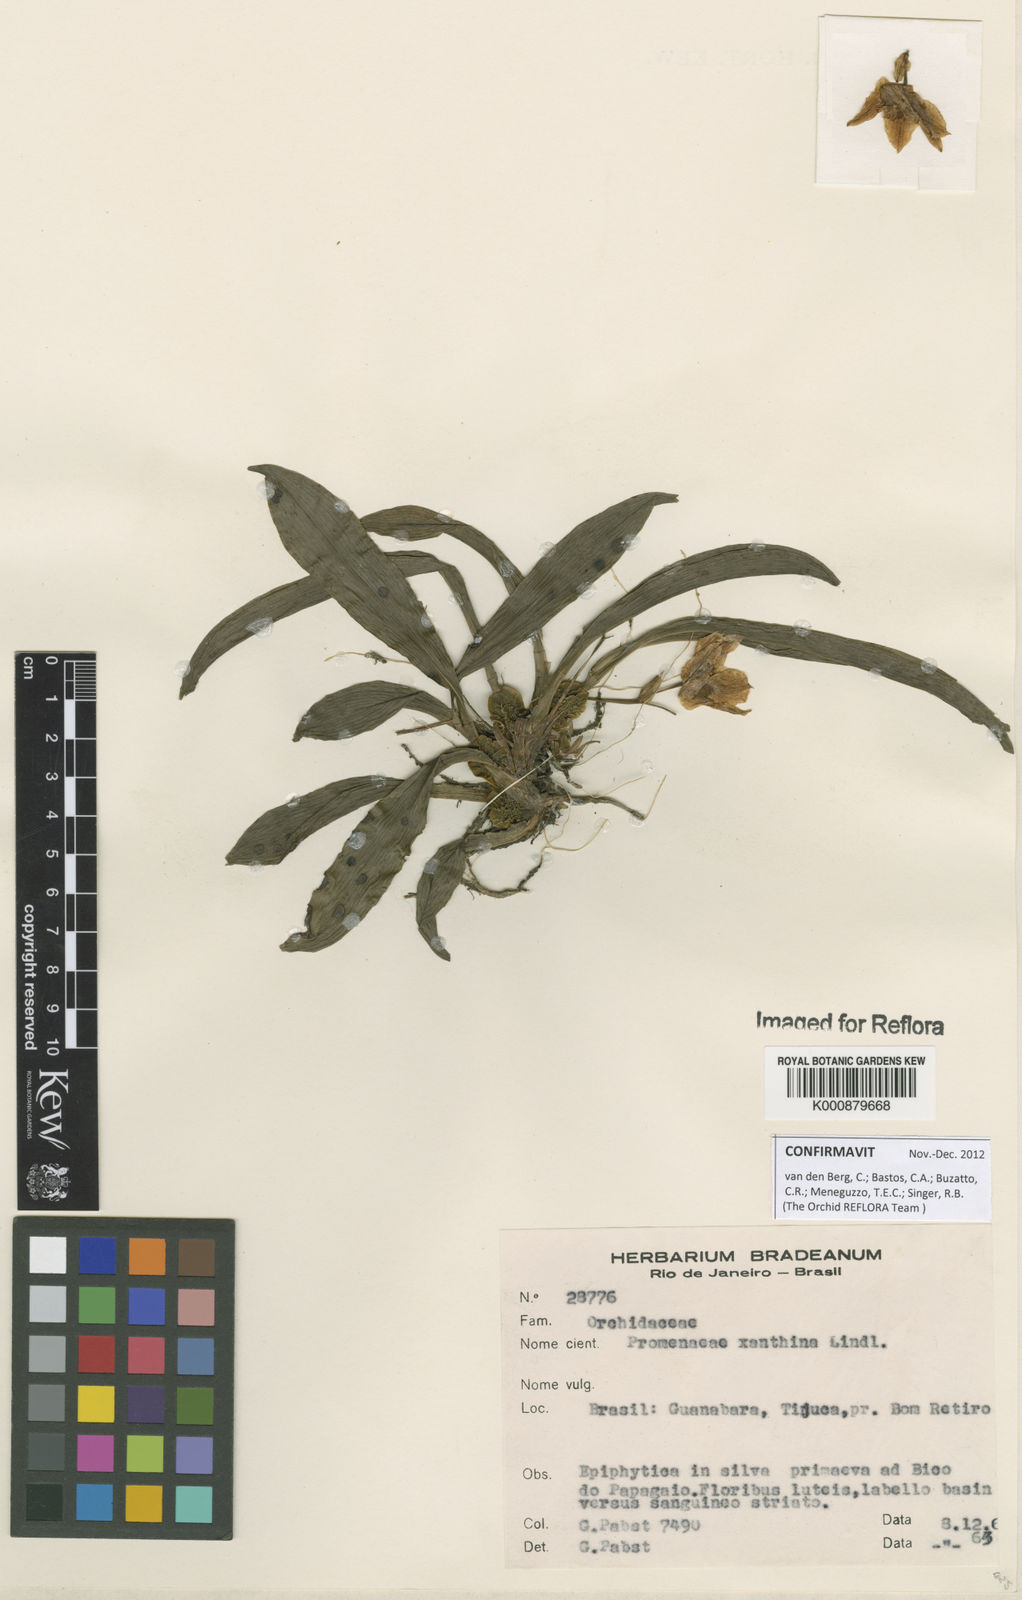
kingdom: Plantae
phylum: Tracheophyta
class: Liliopsida
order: Asparagales
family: Orchidaceae
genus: Promenaea
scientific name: Promenaea
